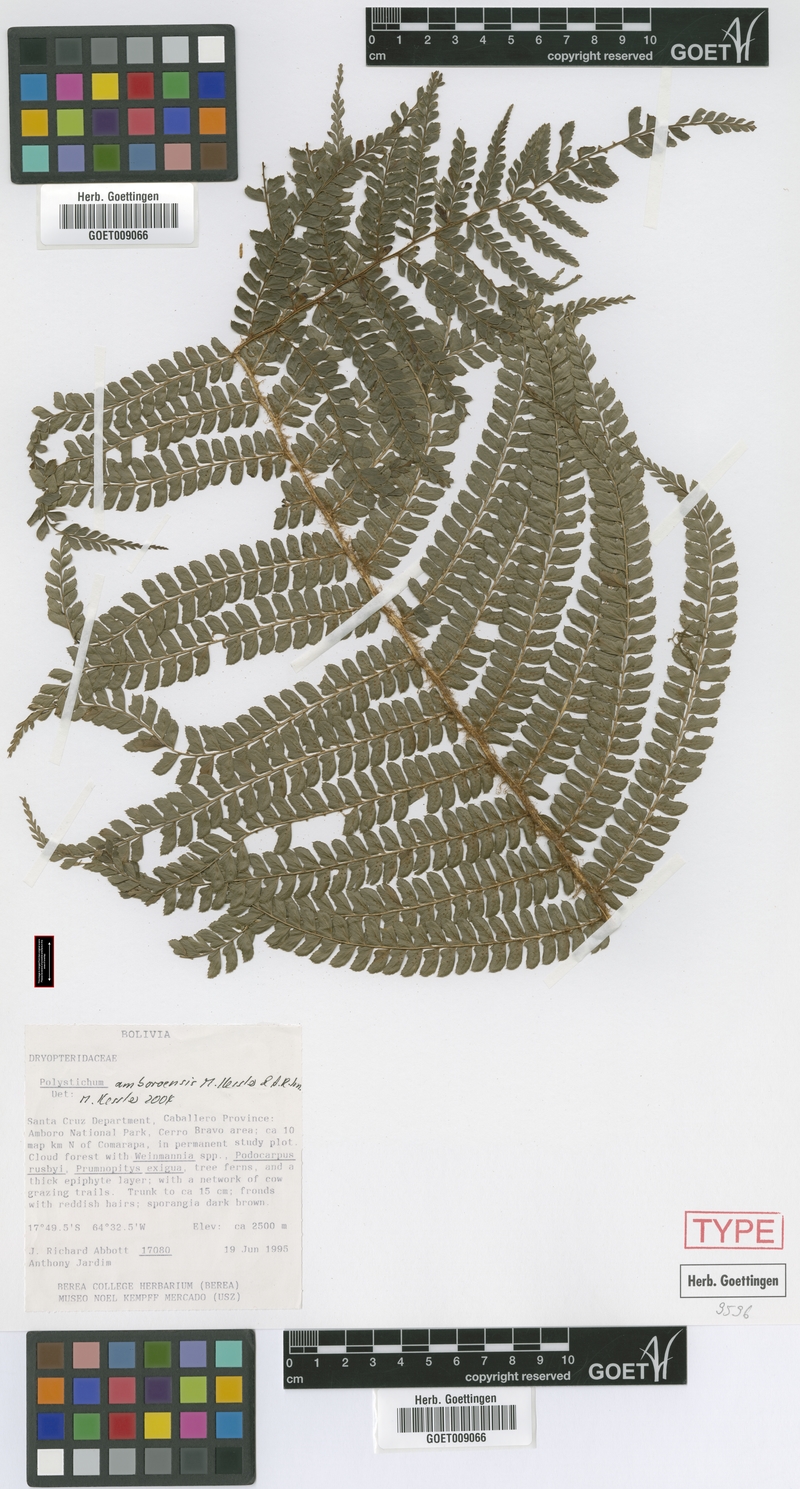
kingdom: Plantae
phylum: Tracheophyta
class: Polypodiopsida
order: Polypodiales
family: Dryopteridaceae
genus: Polystichum
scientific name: Polystichum amboroensis
